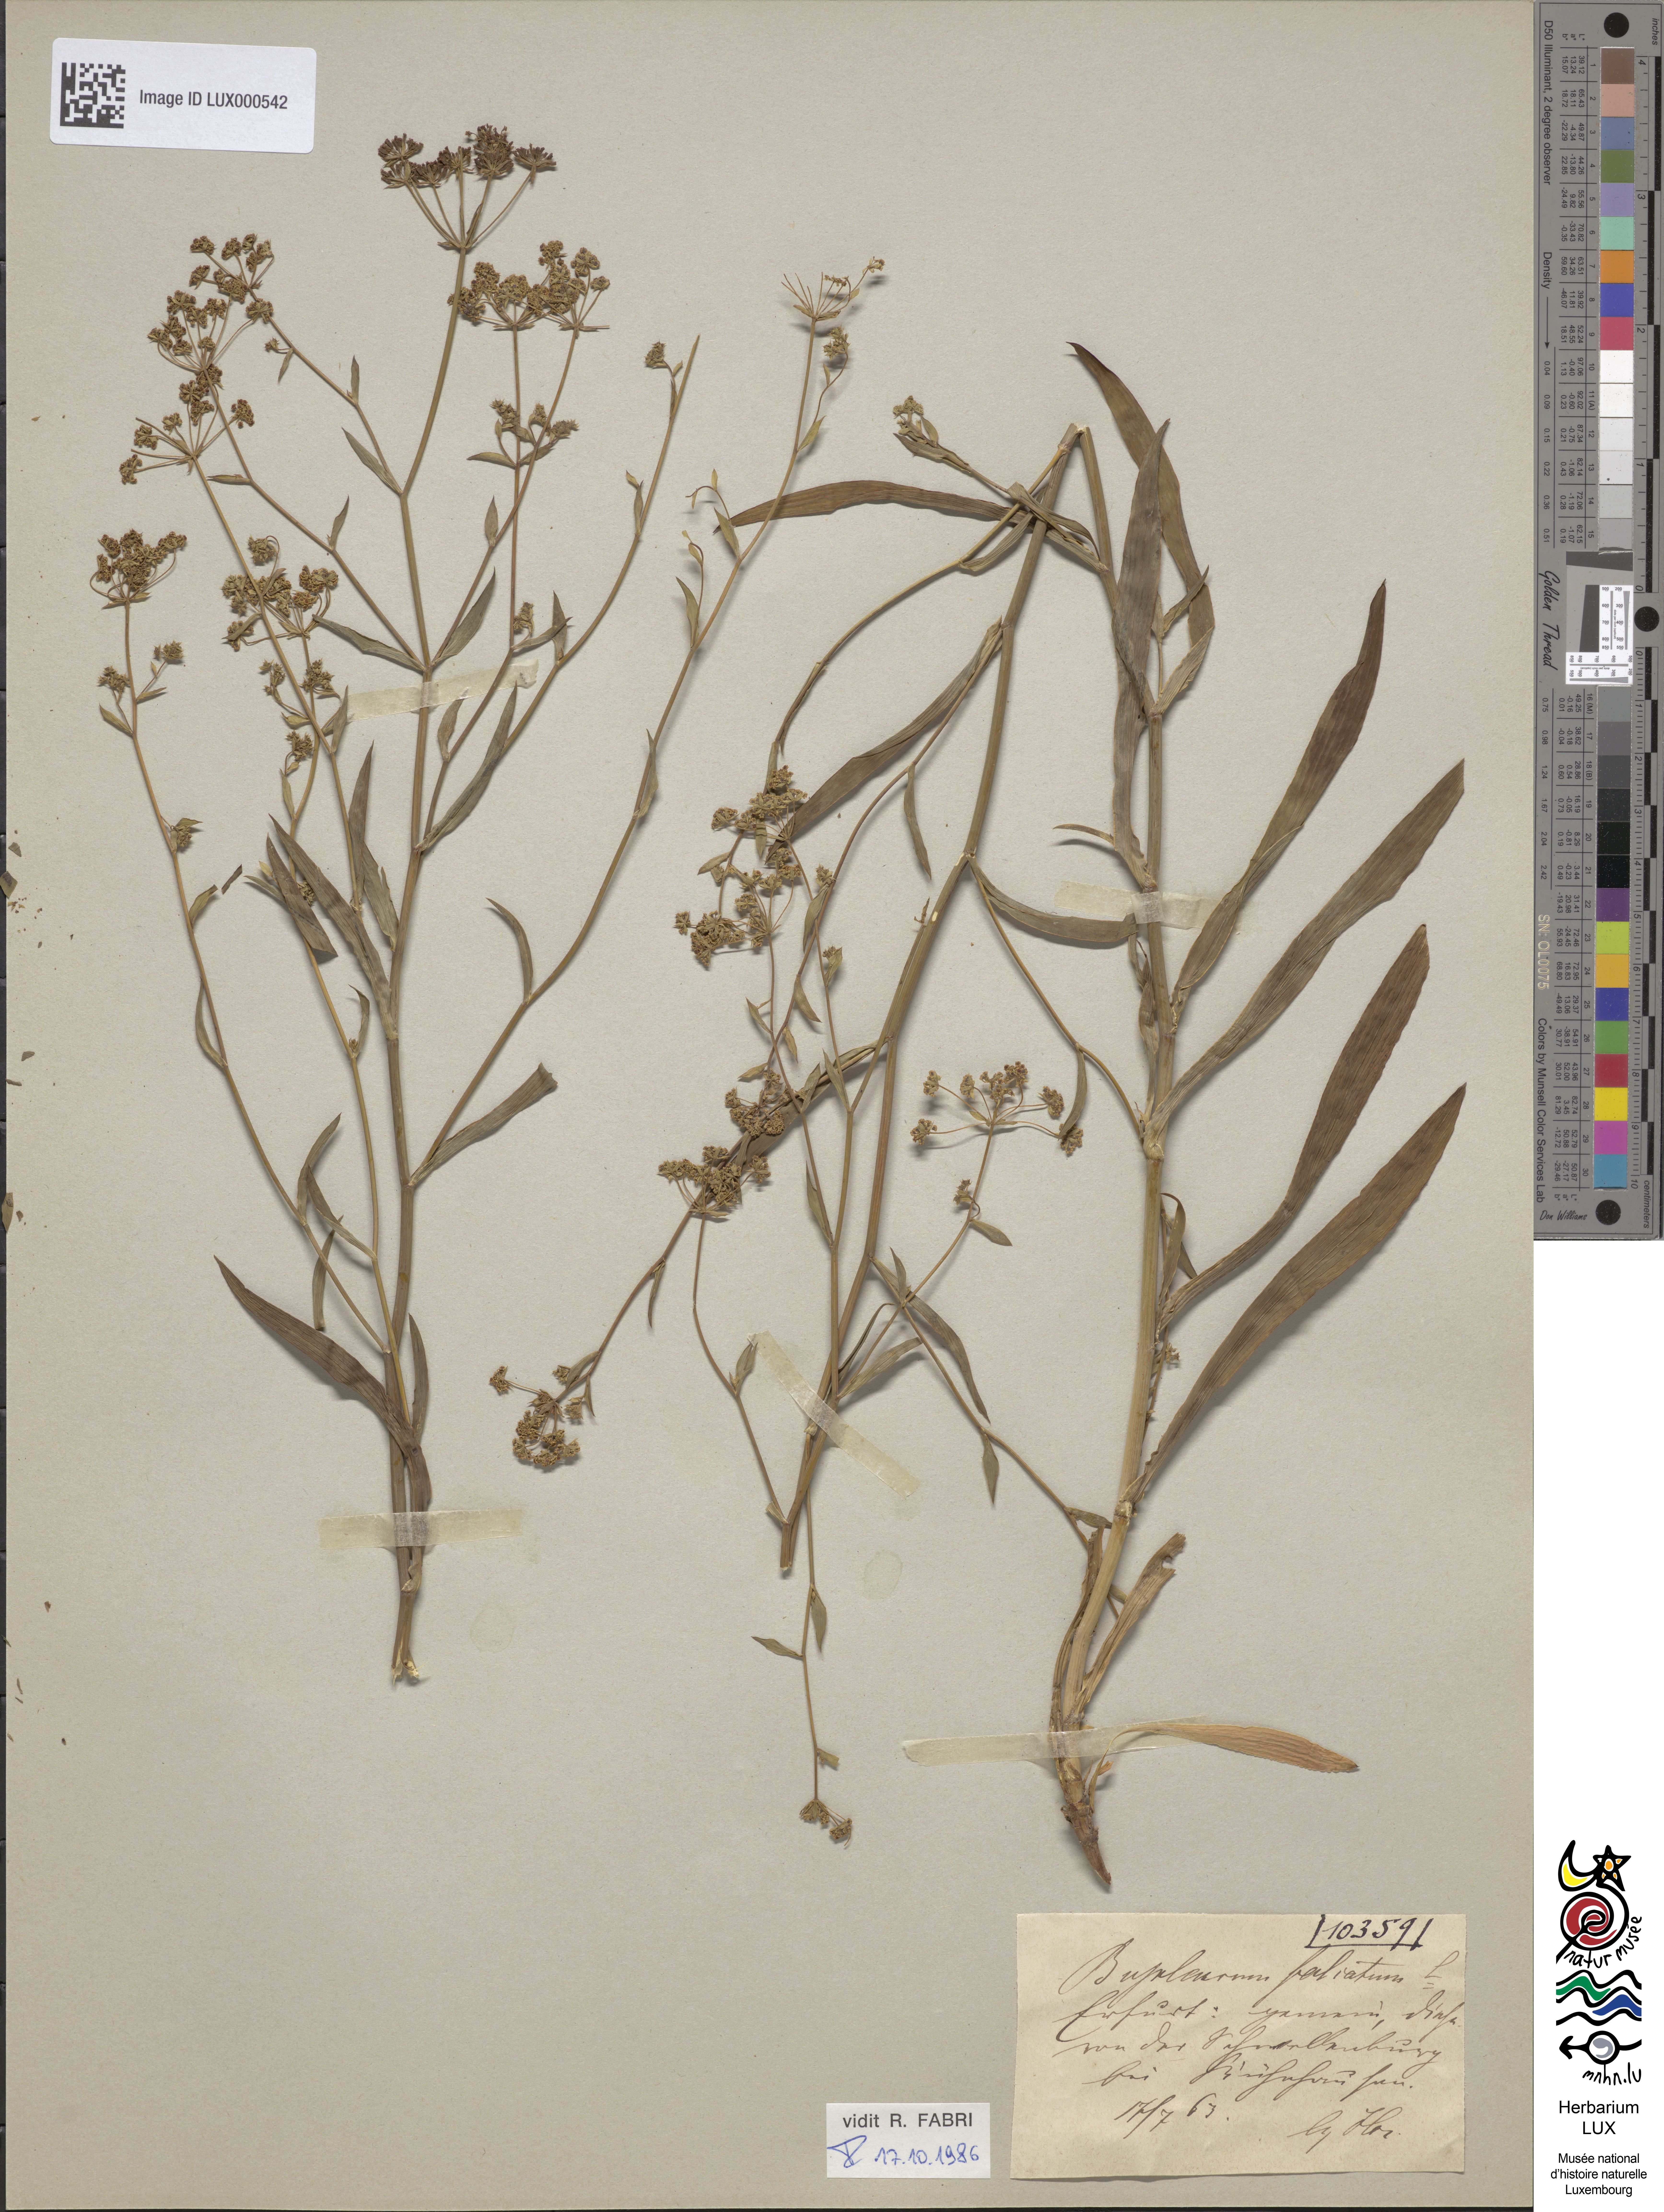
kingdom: Plantae
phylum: Tracheophyta
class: Magnoliopsida
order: Apiales
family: Apiaceae
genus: Bupleurum
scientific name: Bupleurum falcatum
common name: Sickle-leaved hare's-ear
